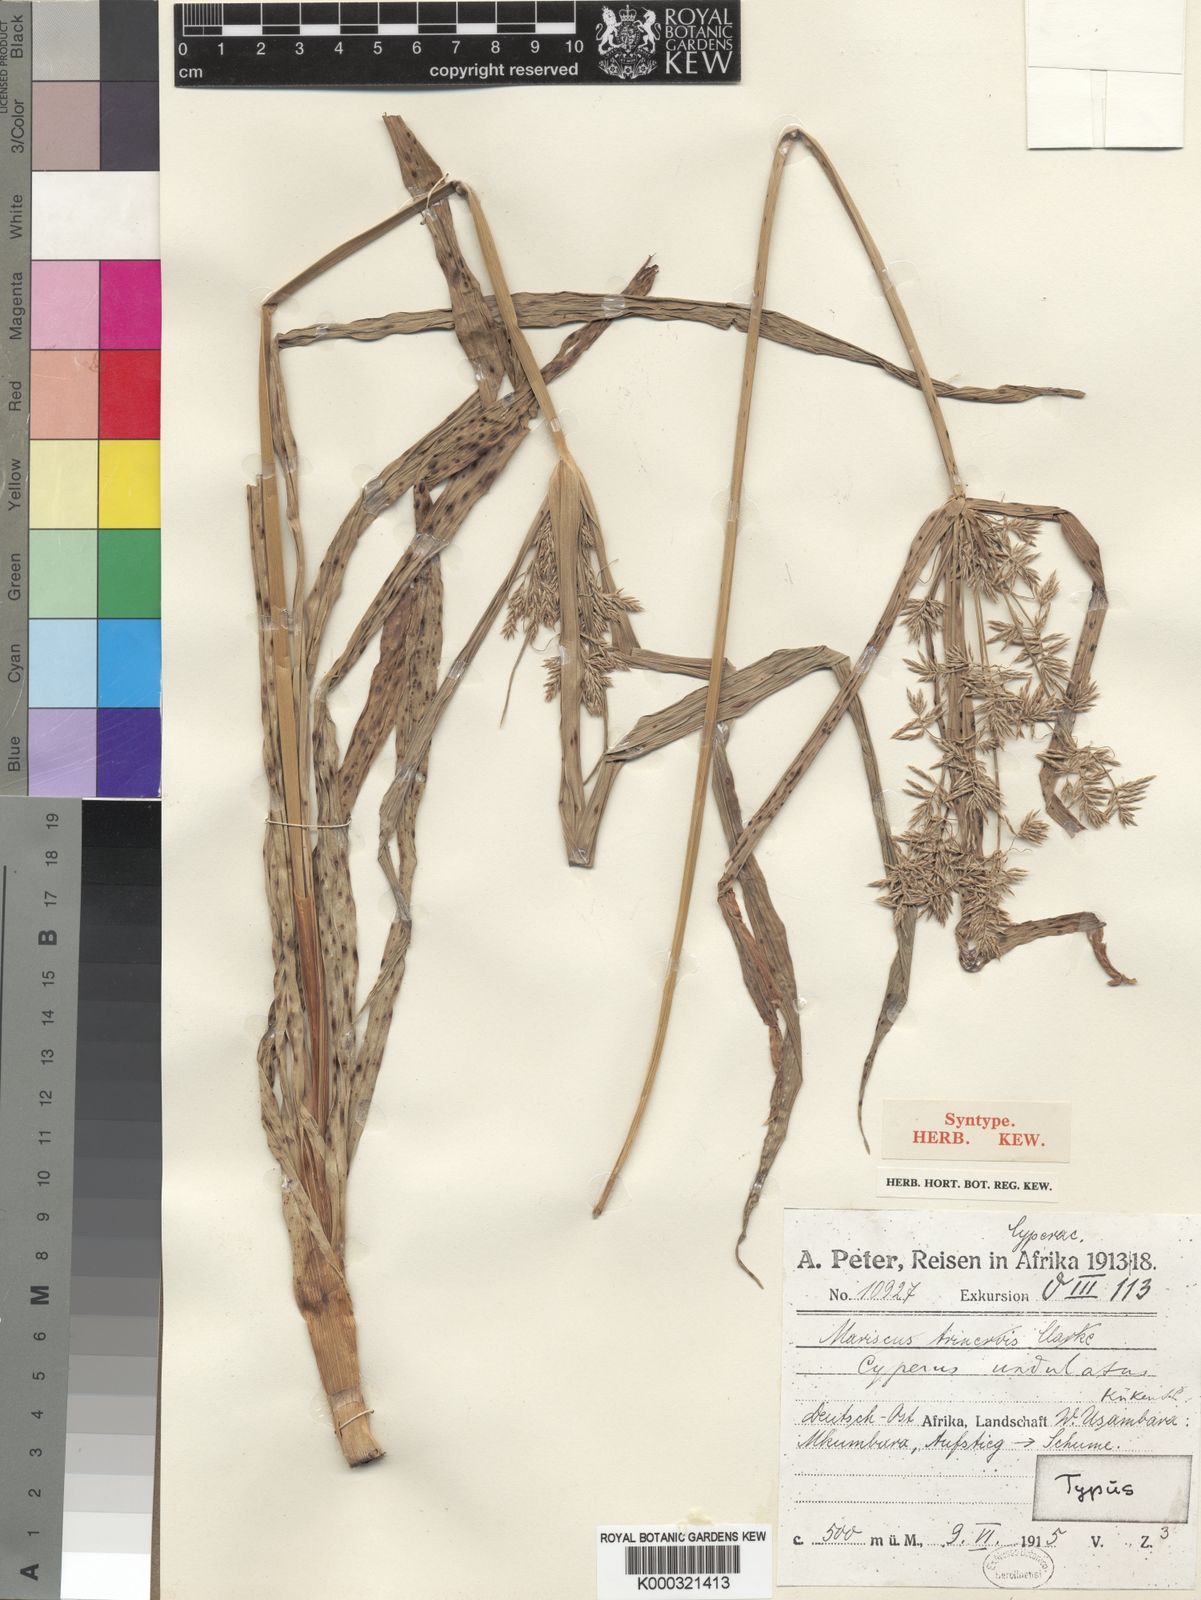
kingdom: Plantae
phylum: Tracheophyta
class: Liliopsida
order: Poales
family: Cyperaceae
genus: Cyperus
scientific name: Cyperus
